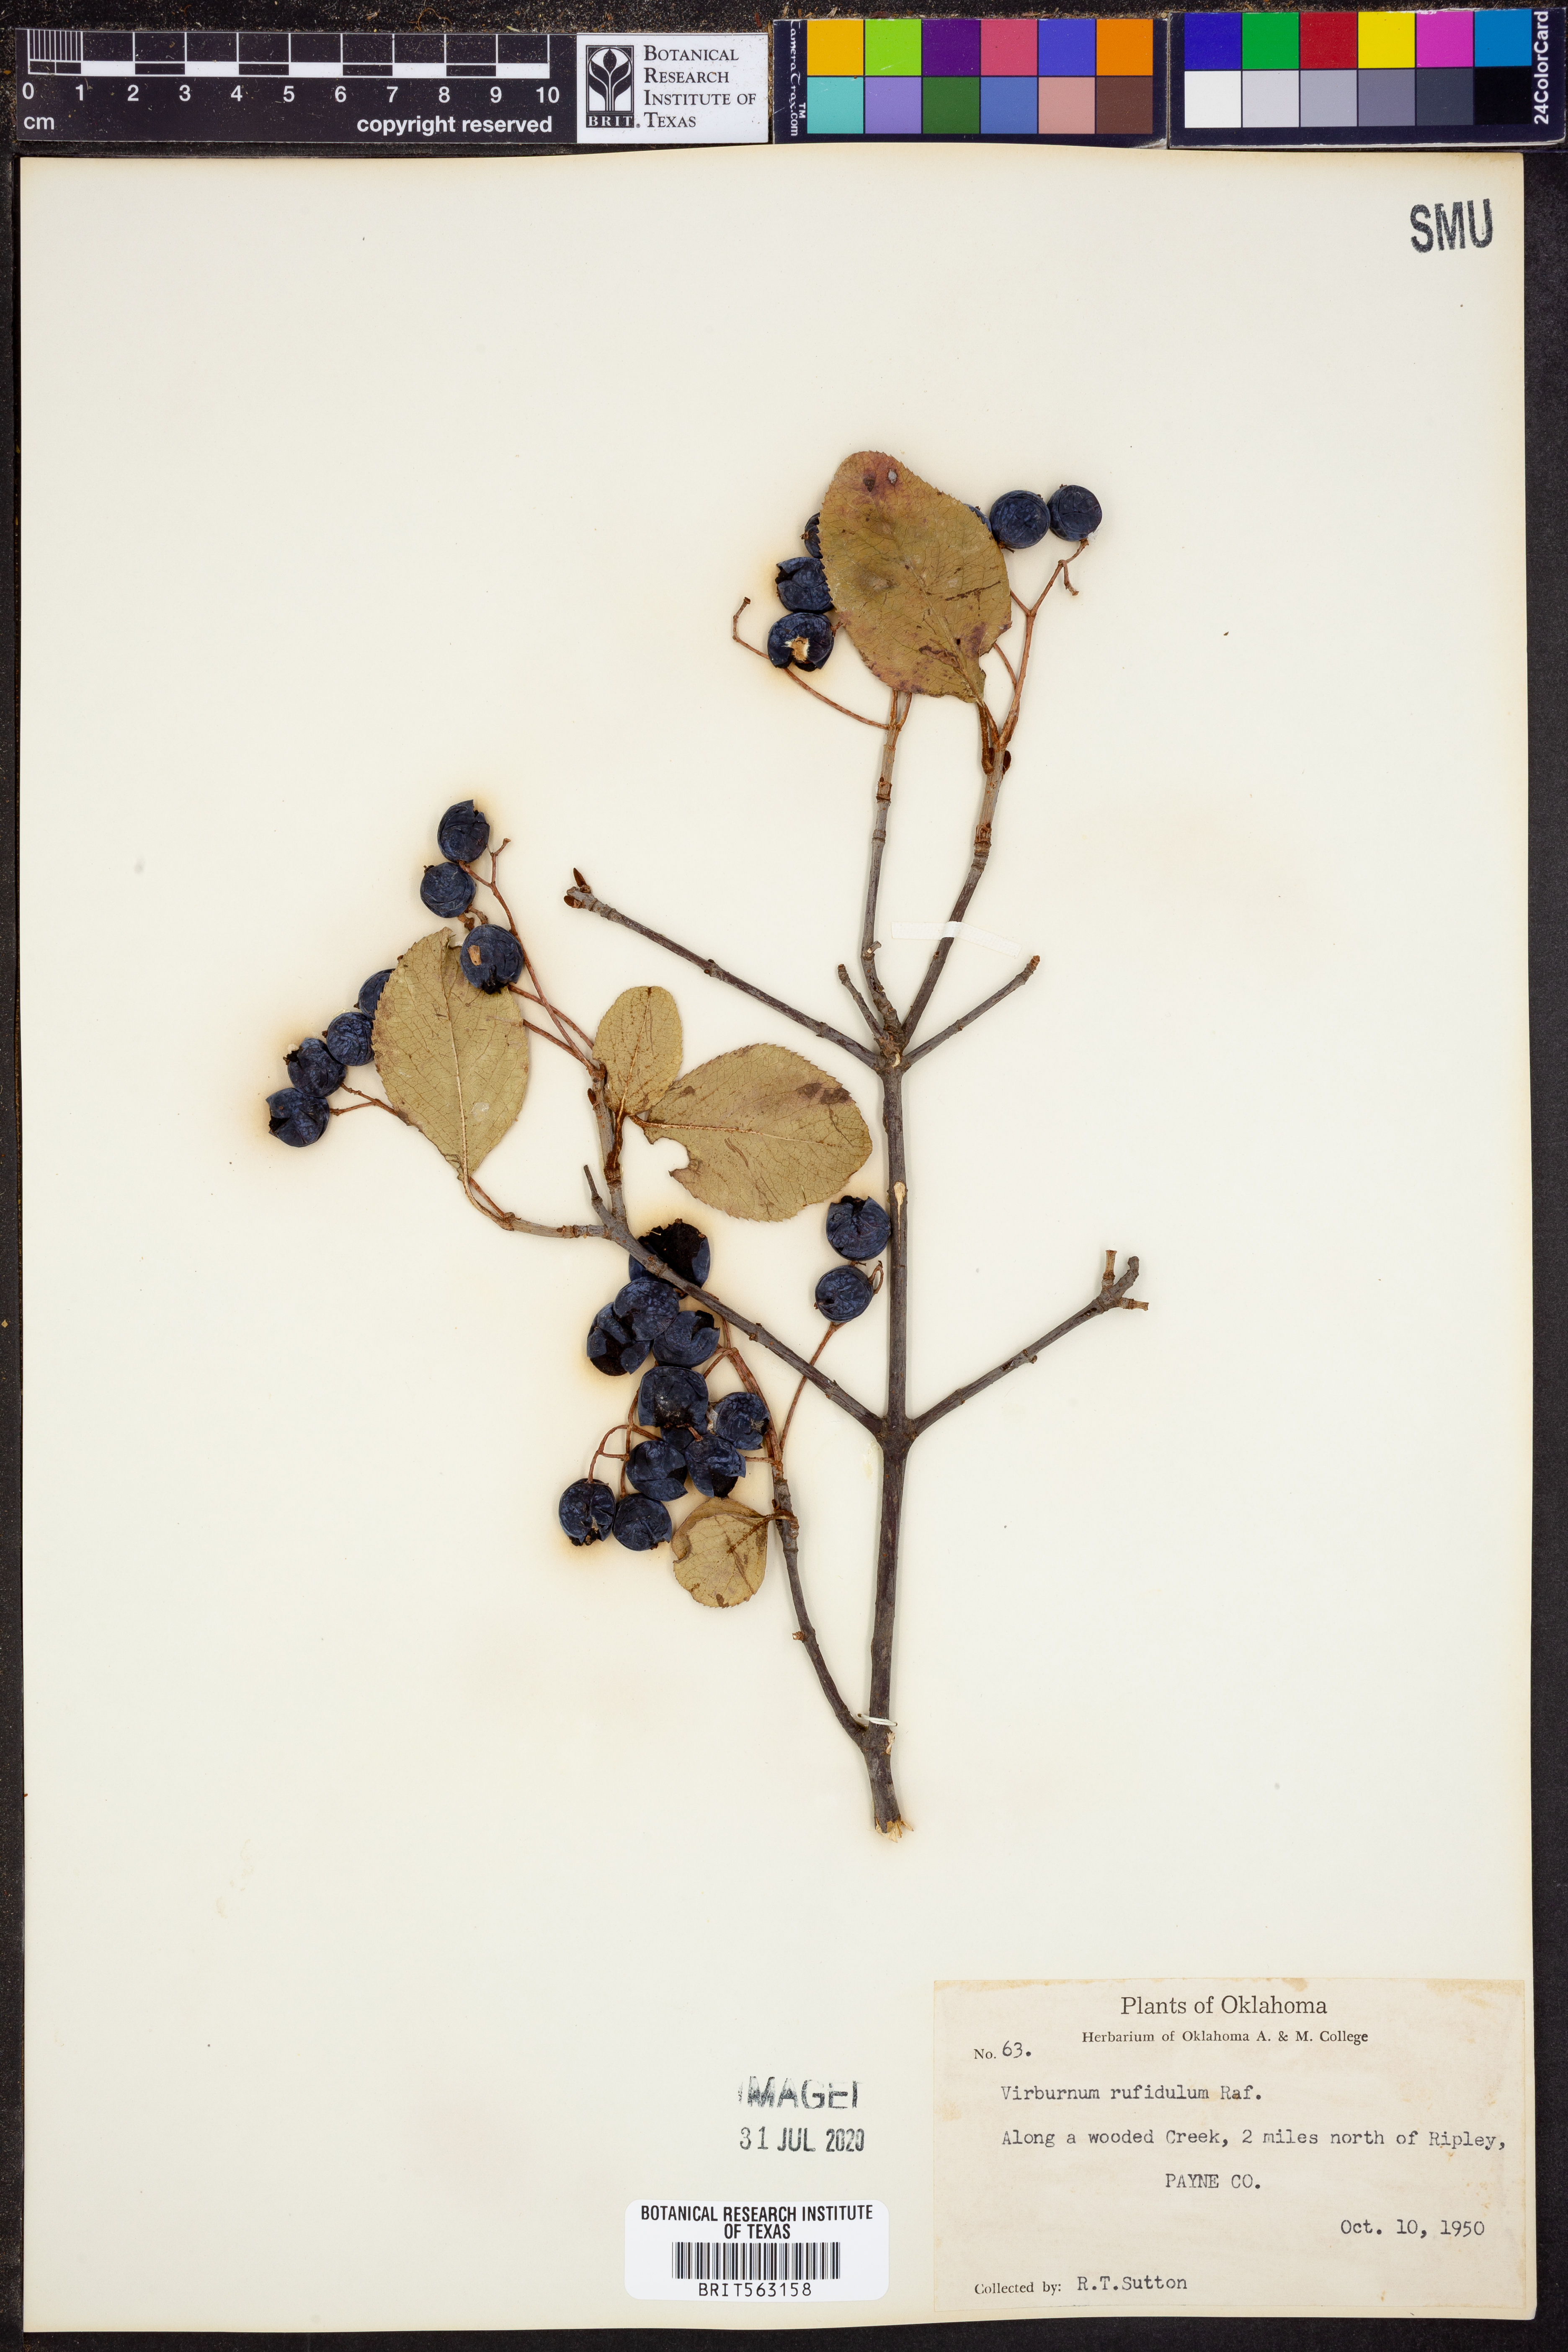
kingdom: Plantae
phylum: Tracheophyta
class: Magnoliopsida
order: Dipsacales
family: Viburnaceae
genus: Viburnum
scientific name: Viburnum rufidulum
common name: Blue haw
